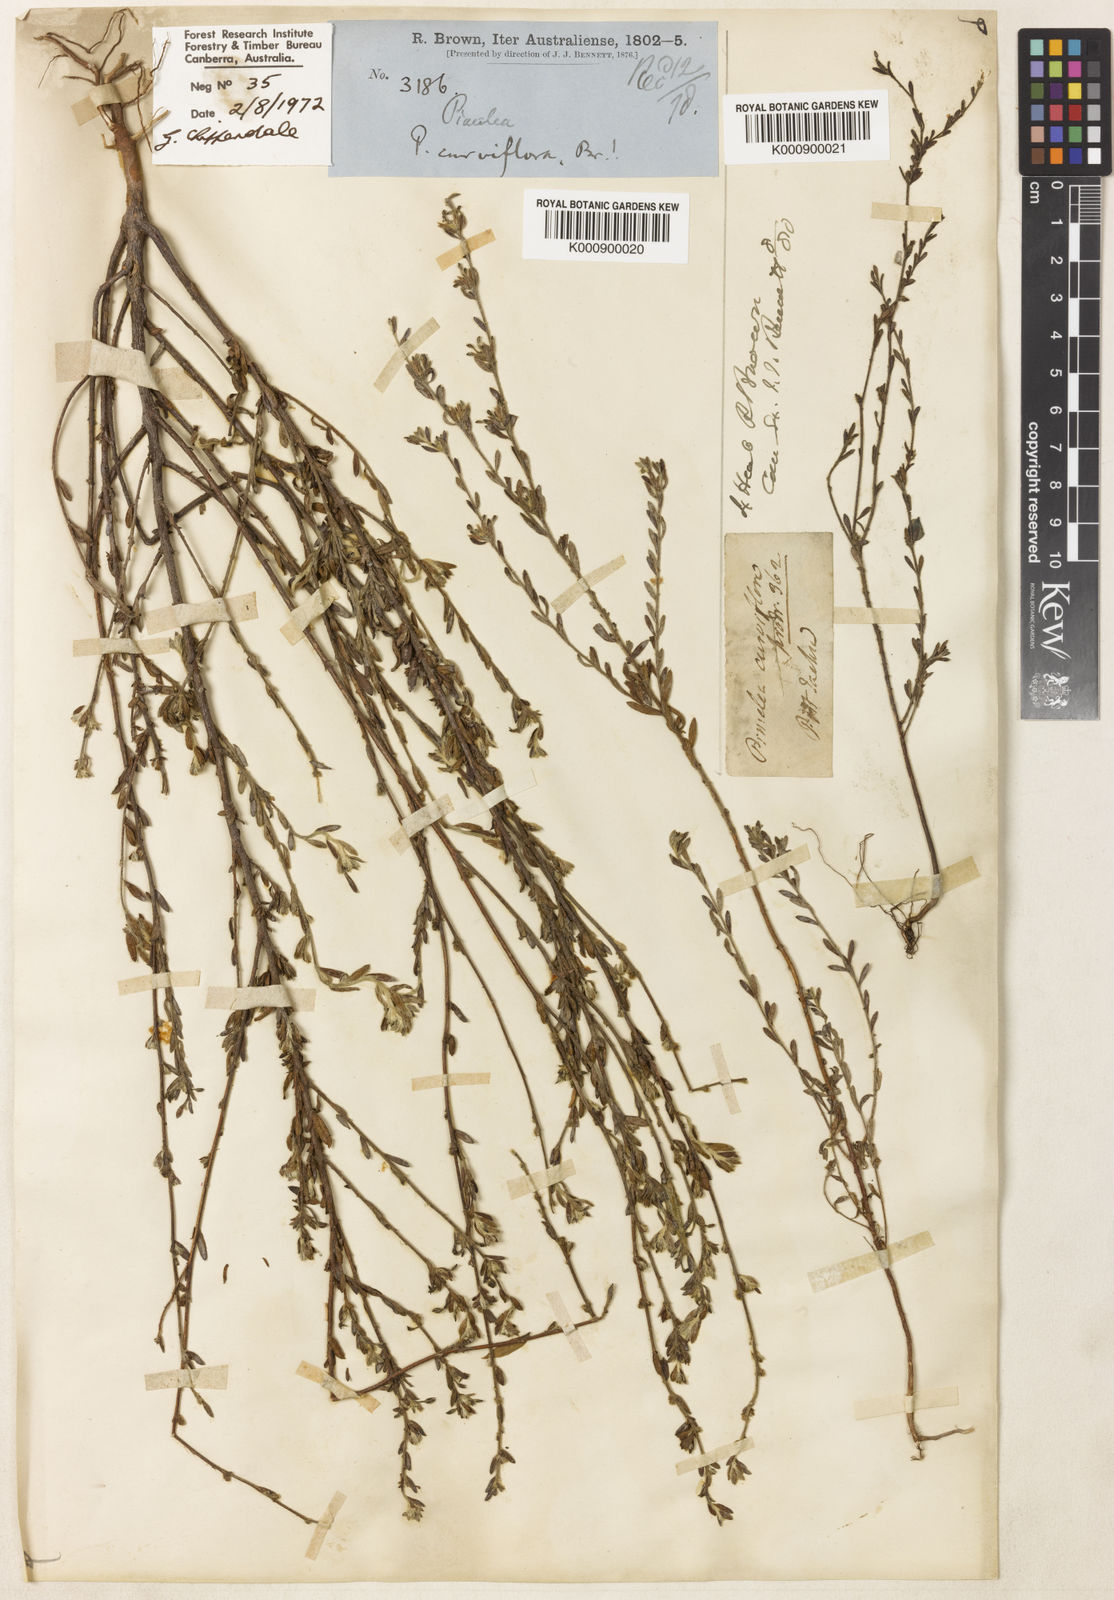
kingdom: Plantae
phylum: Tracheophyta
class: Magnoliopsida
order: Malvales
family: Thymelaeaceae
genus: Pimelea
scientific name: Pimelea curviflora
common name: Curved riceflower
